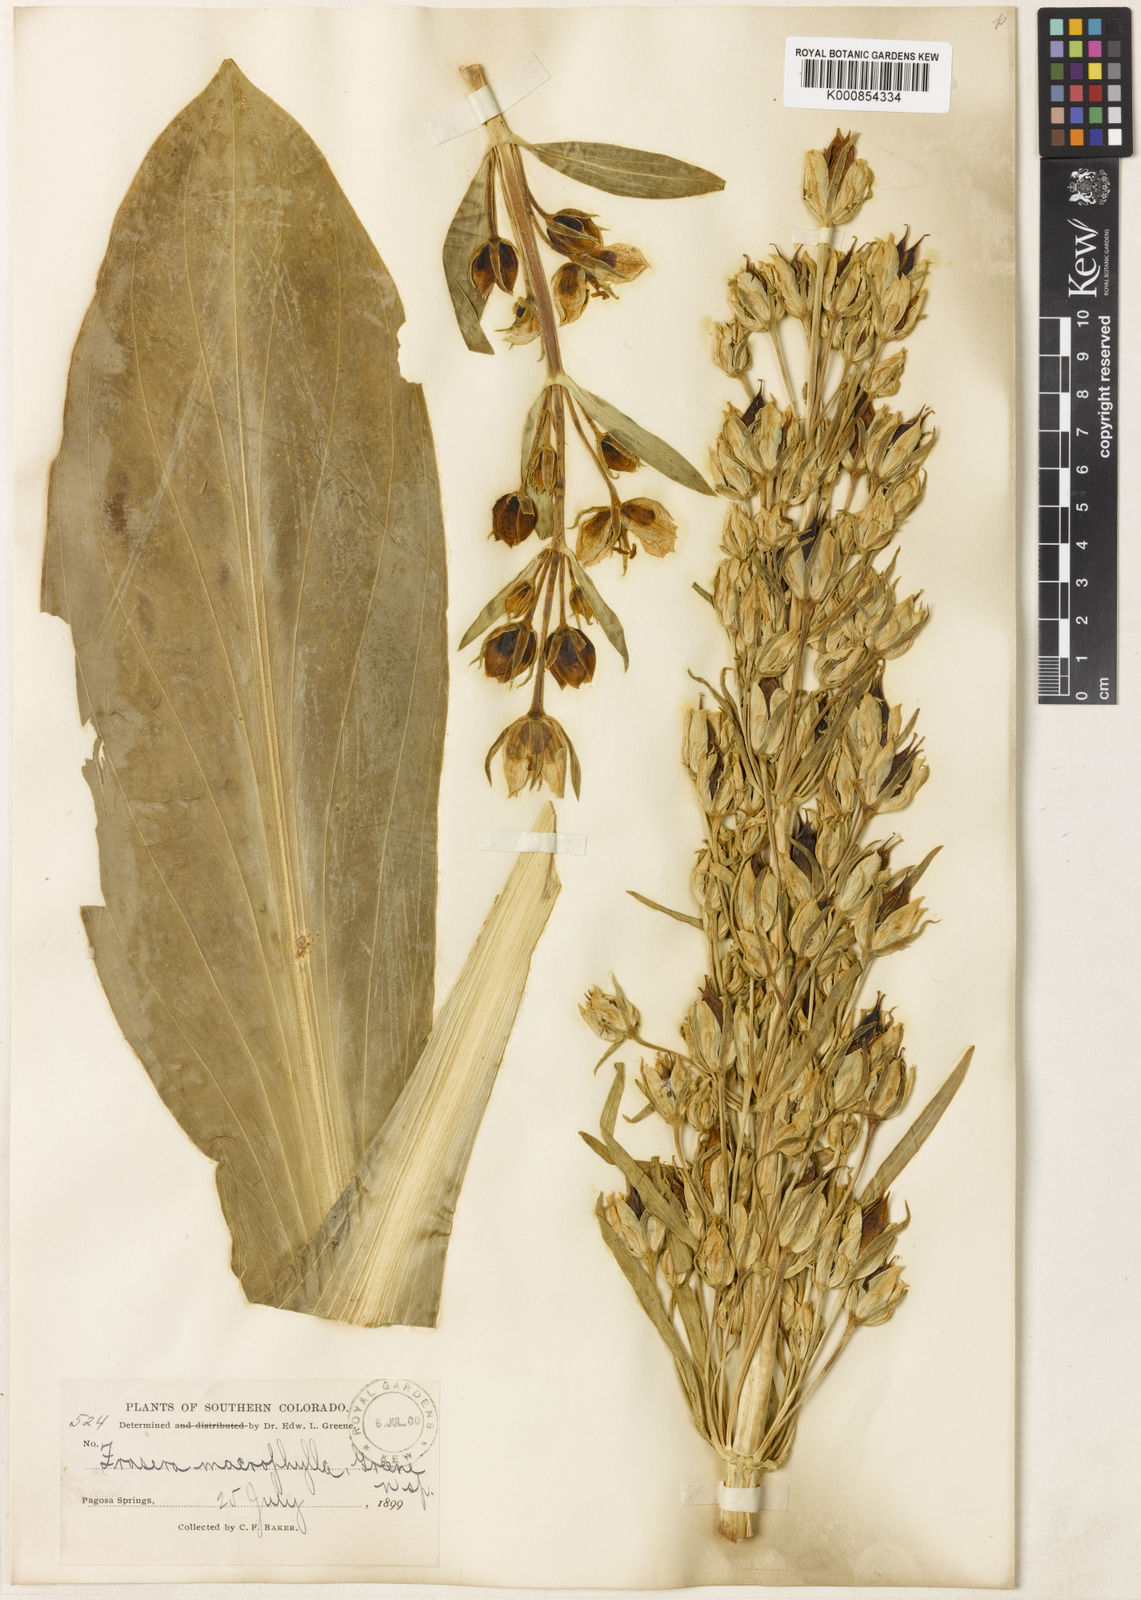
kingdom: Plantae
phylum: Tracheophyta
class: Magnoliopsida
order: Gentianales
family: Gentianaceae
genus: Frasera
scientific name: Frasera
